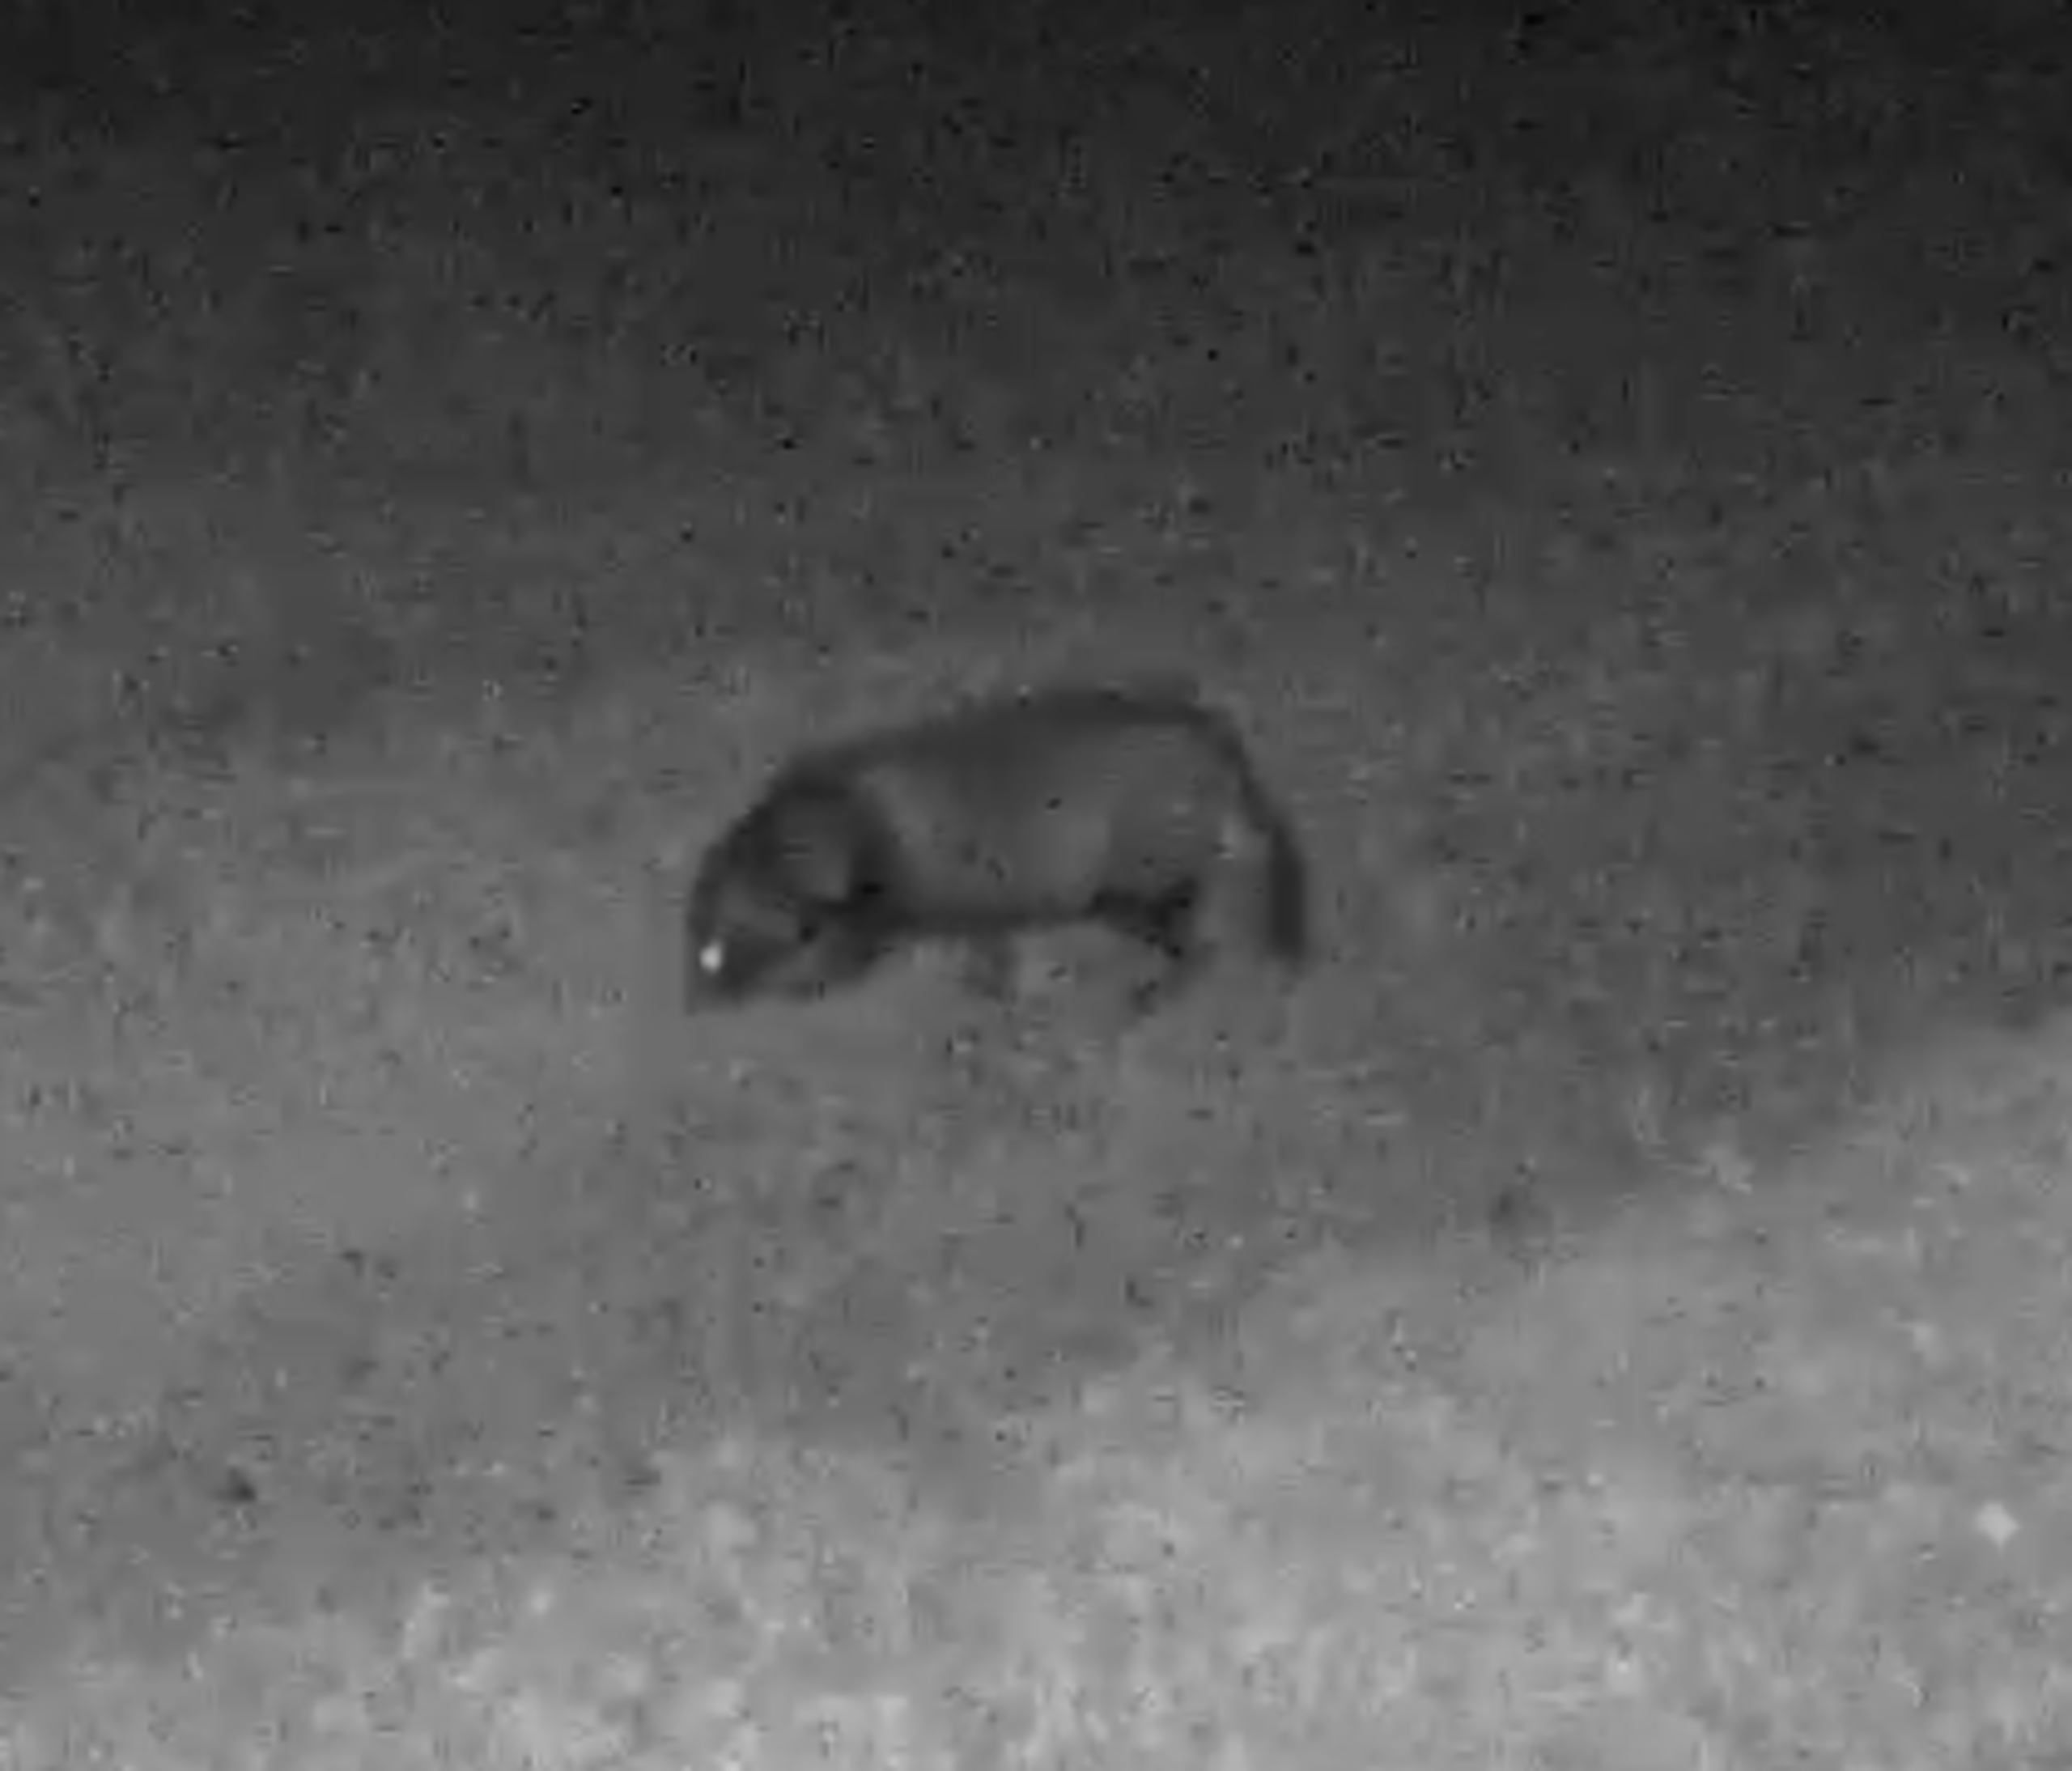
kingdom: Animalia
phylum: Chordata
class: Mammalia
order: Carnivora
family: Canidae
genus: Nyctereutes
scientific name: Nyctereutes procyonoides
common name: Mårhund
